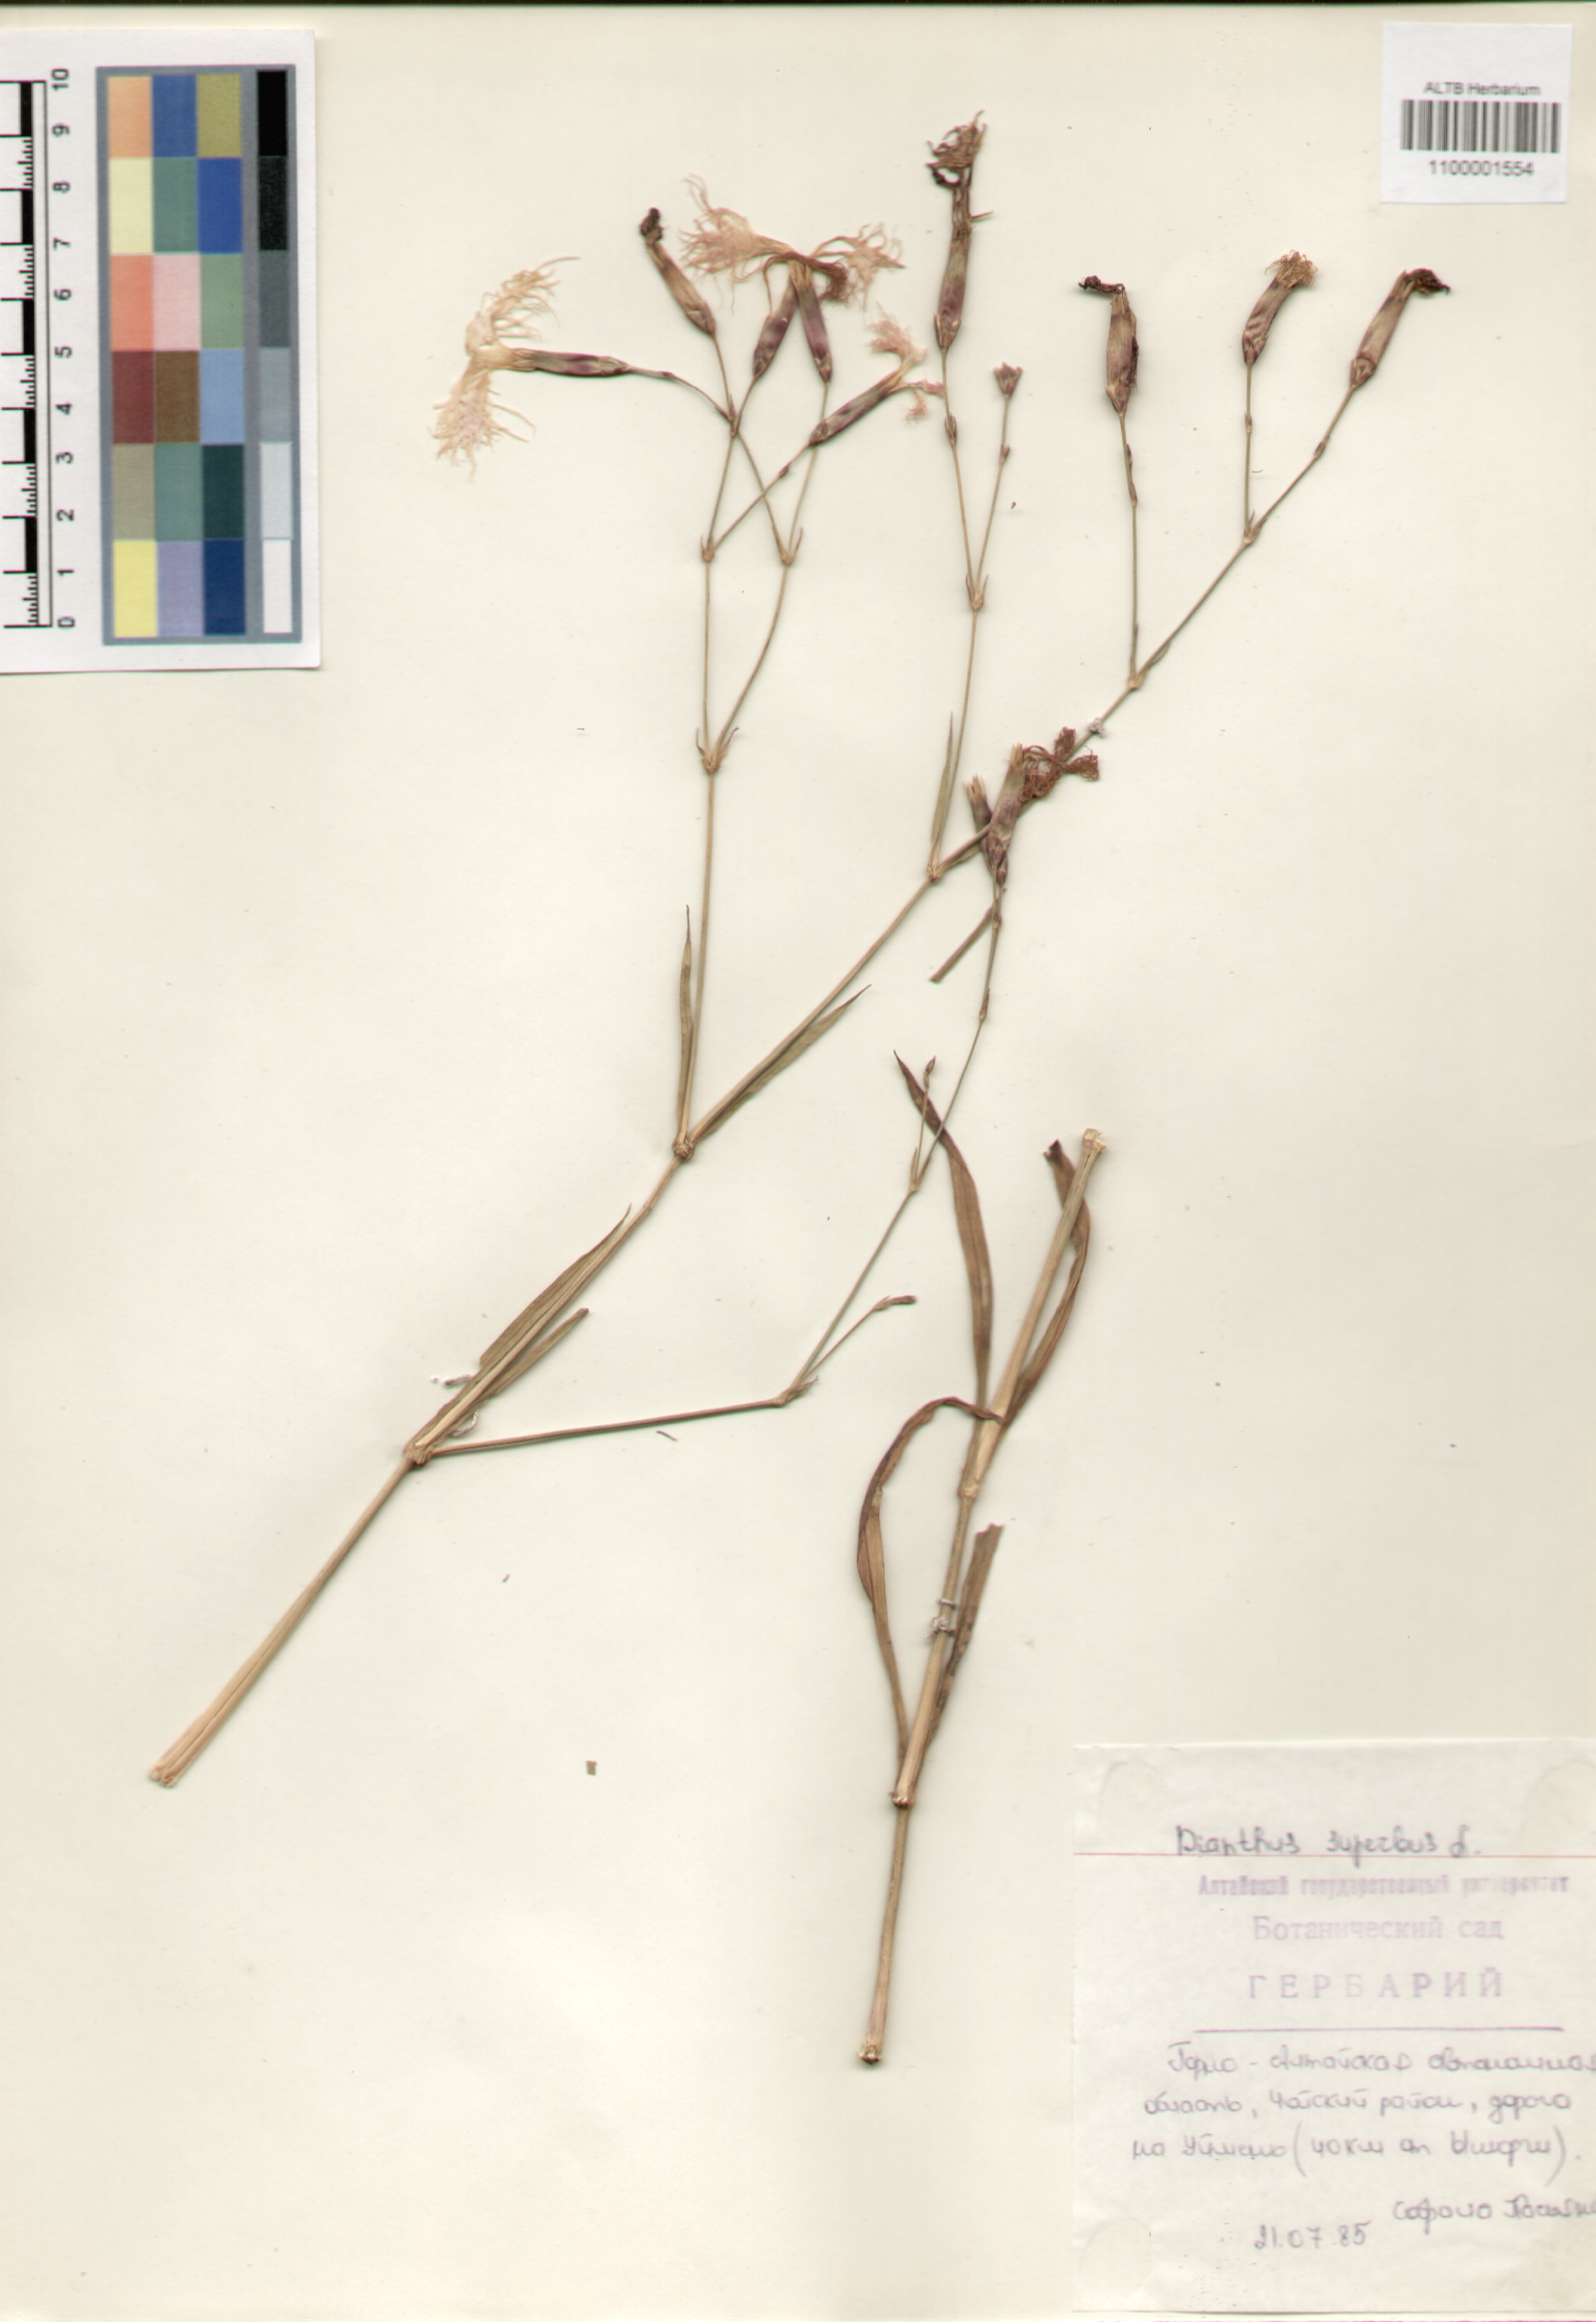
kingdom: Plantae
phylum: Tracheophyta
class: Magnoliopsida
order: Caryophyllales
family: Caryophyllaceae
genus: Dianthus
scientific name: Dianthus superbus
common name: Fringed pink
